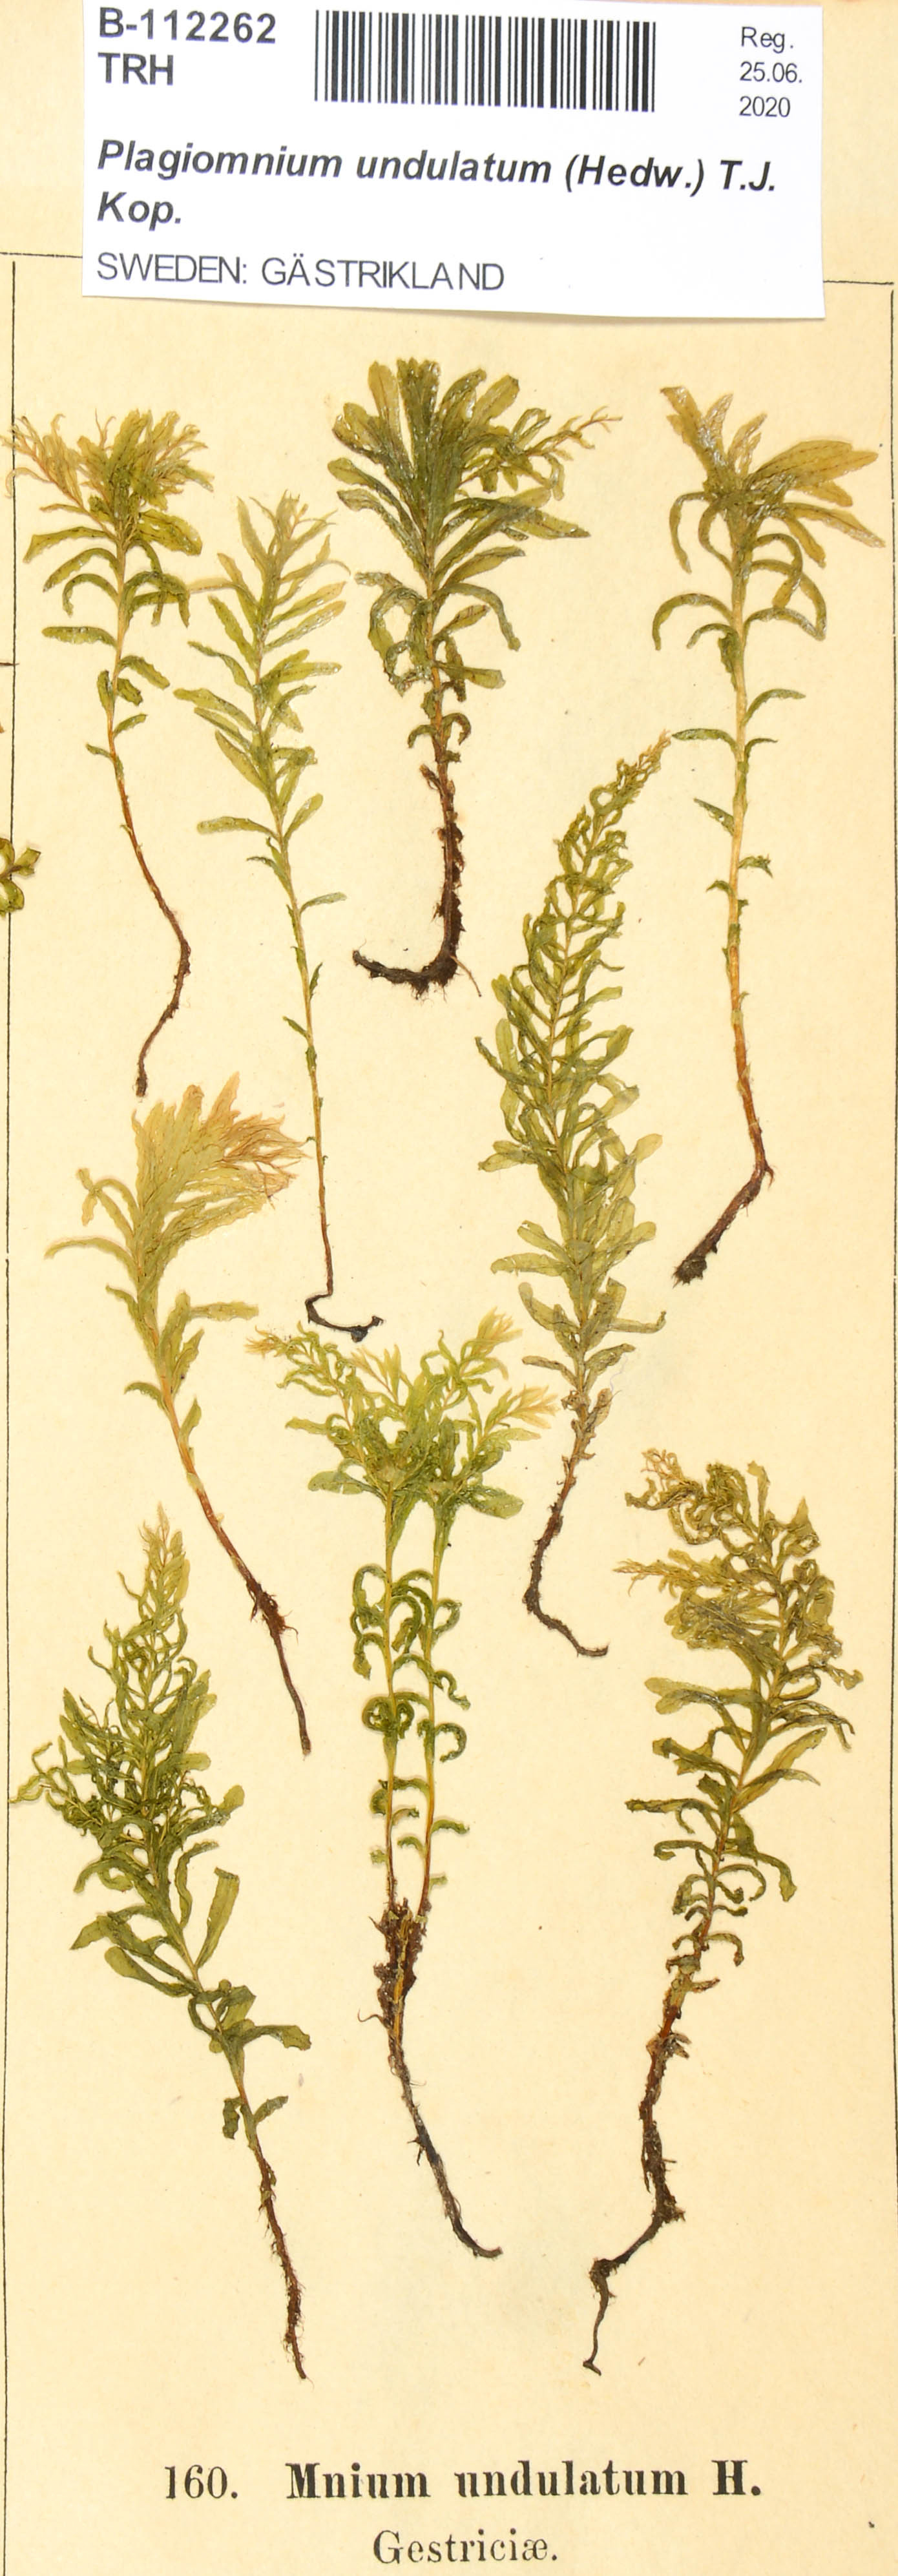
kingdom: Plantae
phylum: Bryophyta
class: Bryopsida
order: Bryales
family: Mniaceae
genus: Plagiomnium
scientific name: Plagiomnium undulatum
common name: Hart's-tongue thyme-moss
